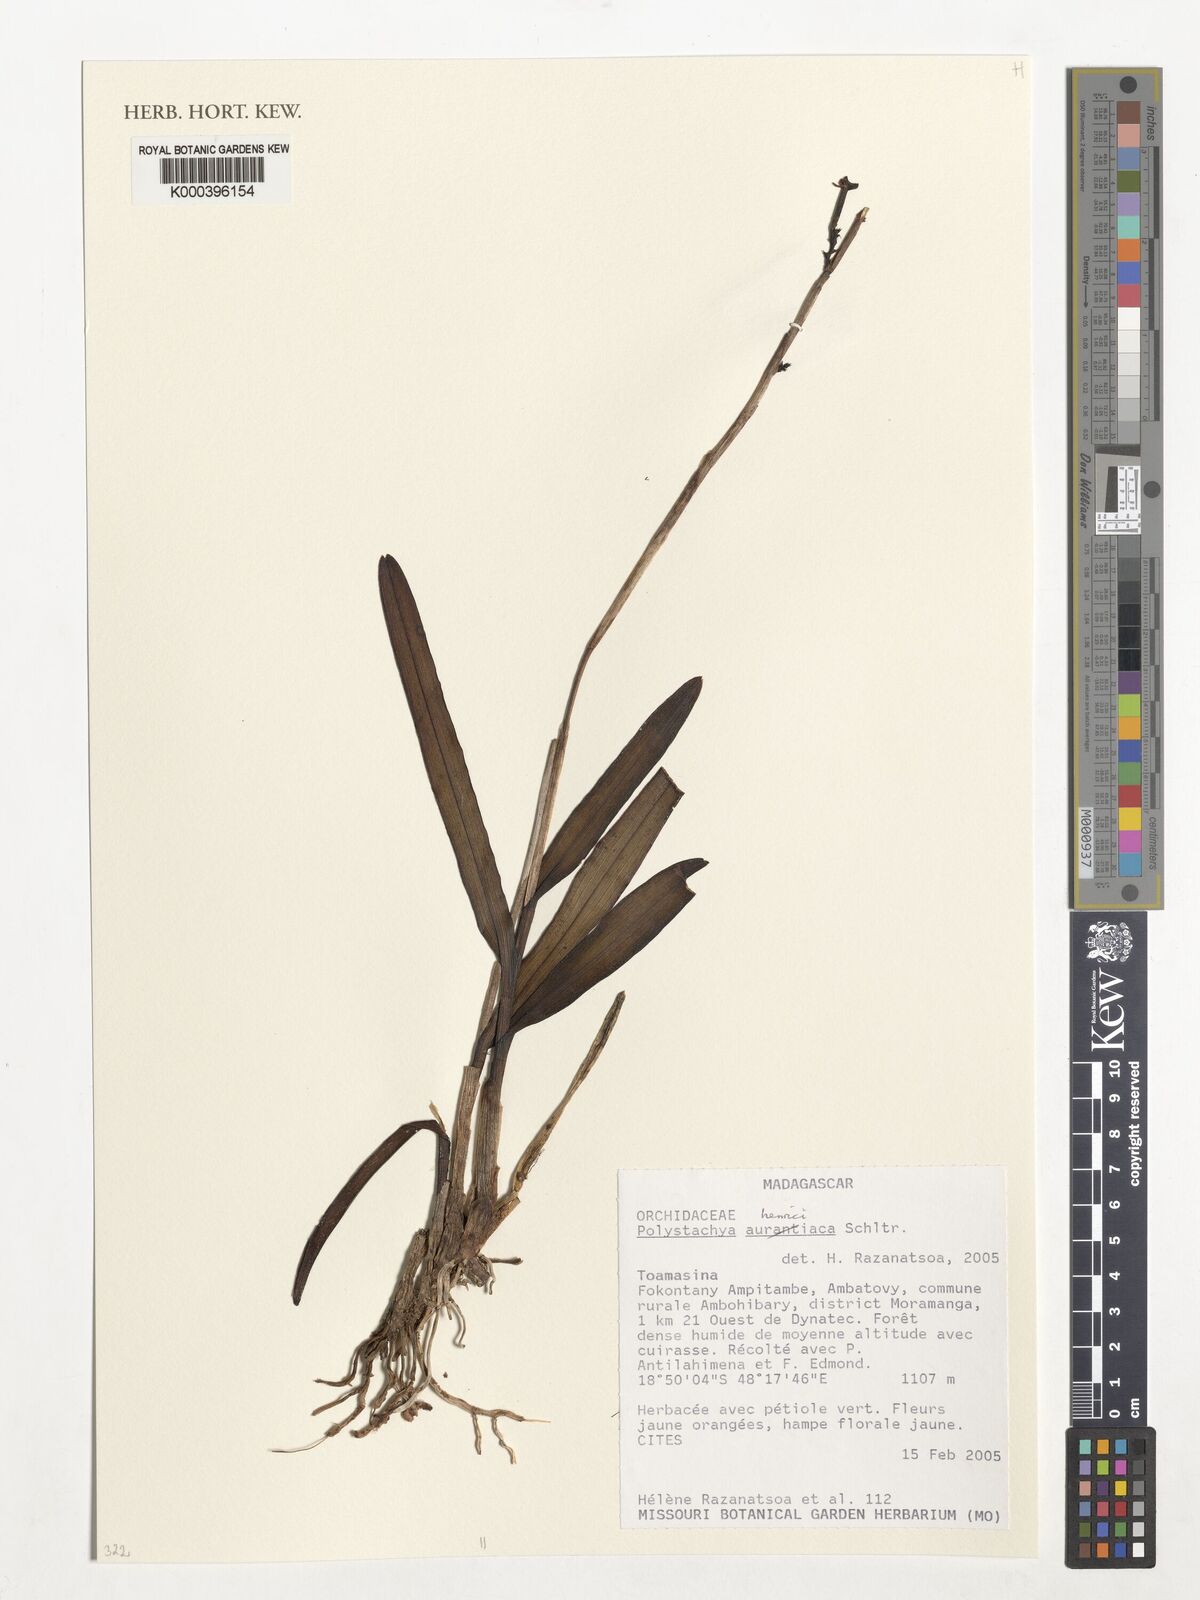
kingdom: Plantae
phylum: Tracheophyta
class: Liliopsida
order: Asparagales
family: Orchidaceae
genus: Polystachya
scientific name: Polystachya henrici
